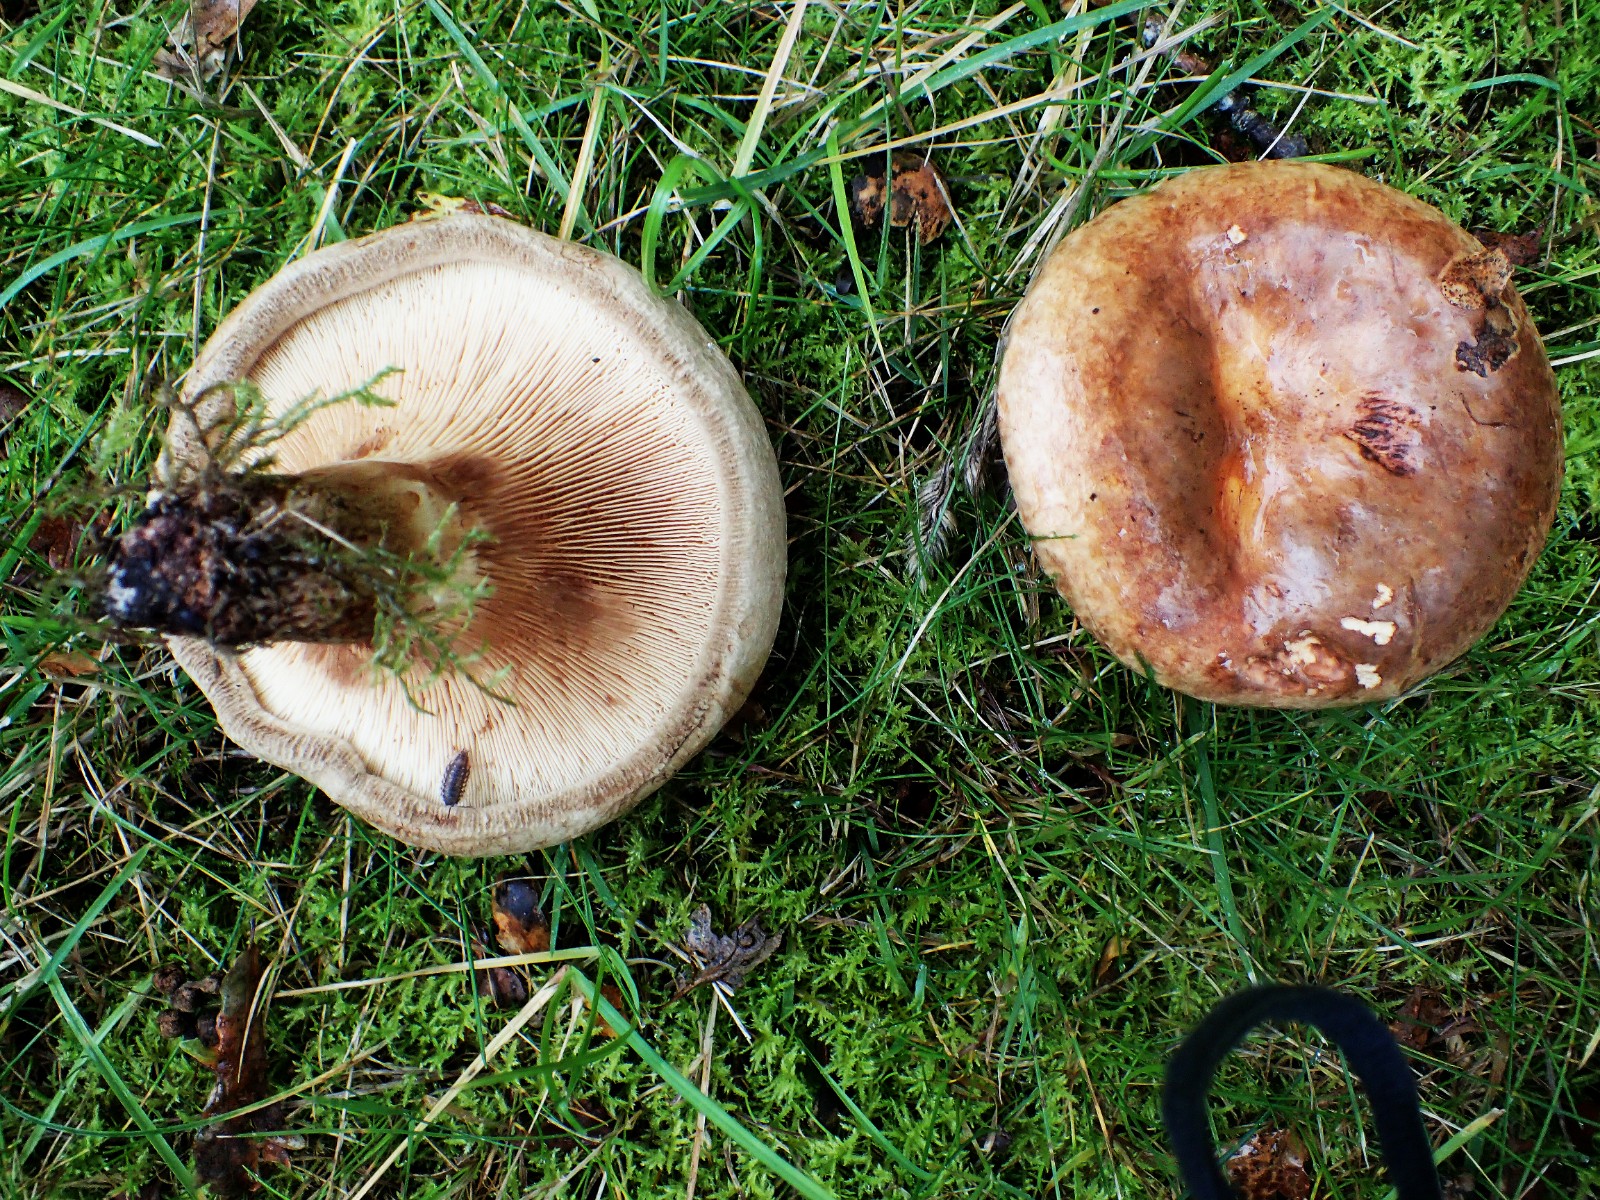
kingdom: Fungi
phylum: Basidiomycota
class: Agaricomycetes
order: Boletales
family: Paxillaceae
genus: Paxillus
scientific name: Paxillus
